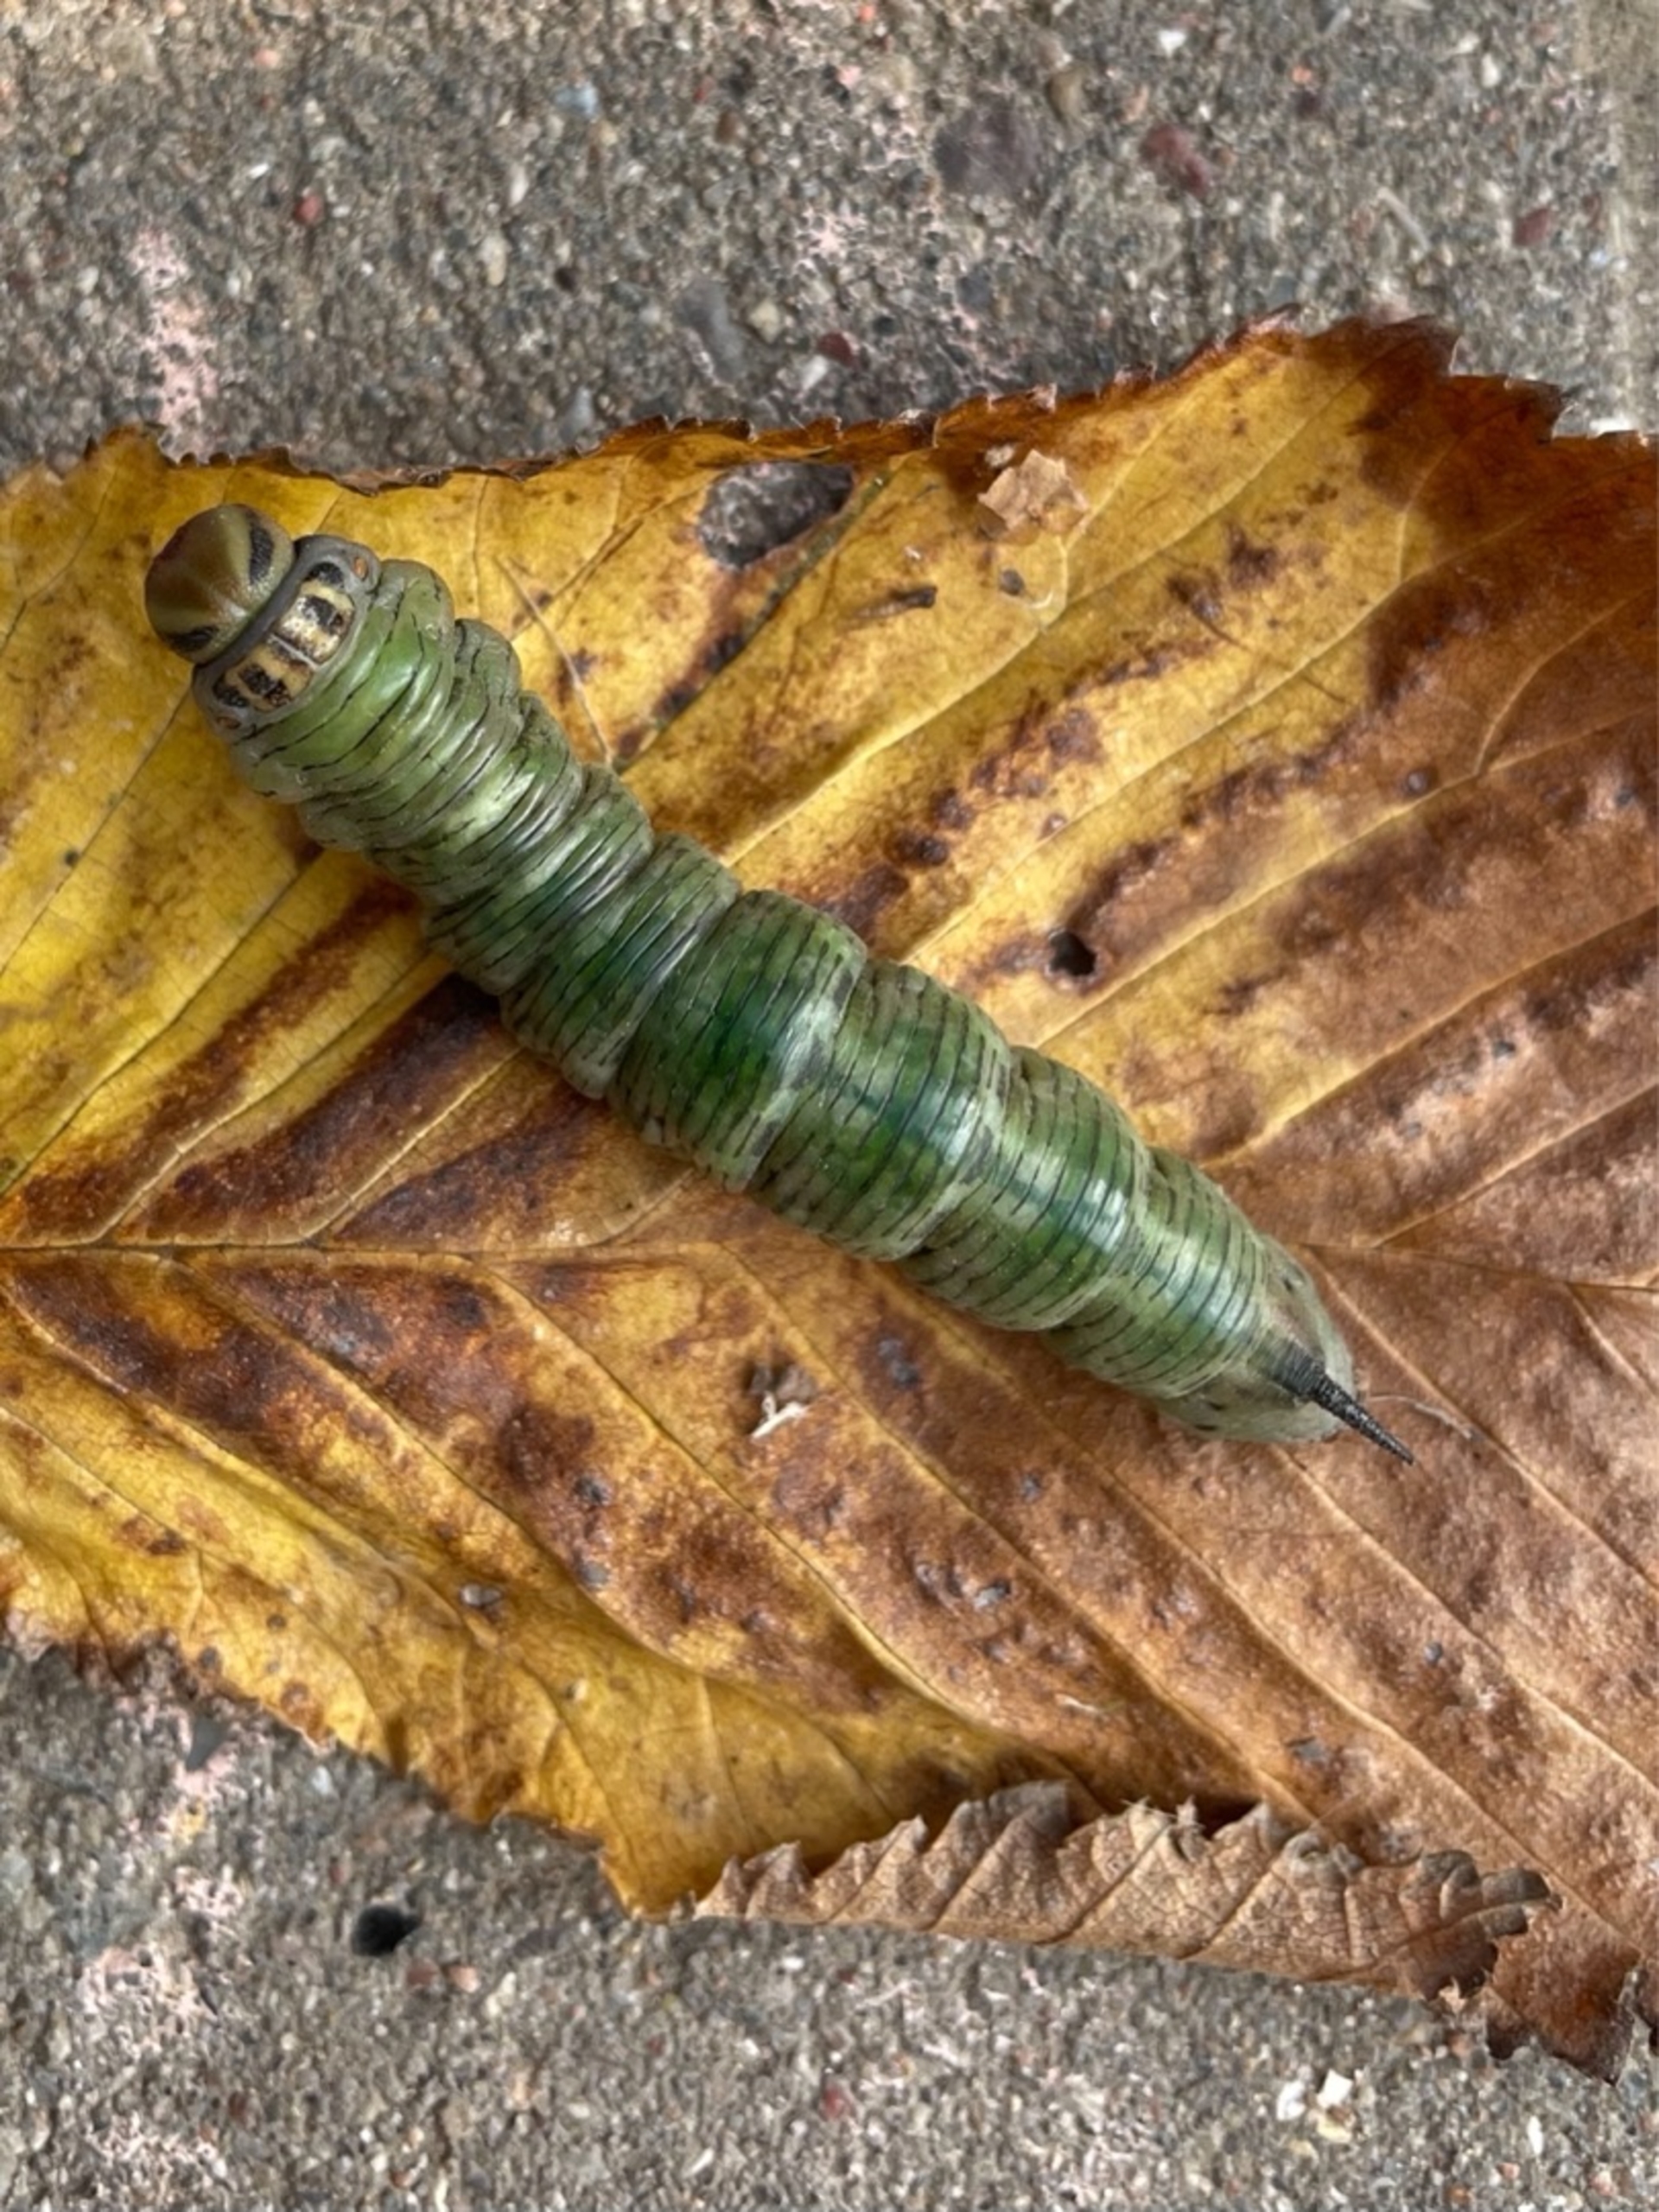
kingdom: Animalia
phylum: Arthropoda
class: Insecta
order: Lepidoptera
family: Sphingidae
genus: Sphinx
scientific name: Sphinx pinastri
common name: Fyrresværmer
